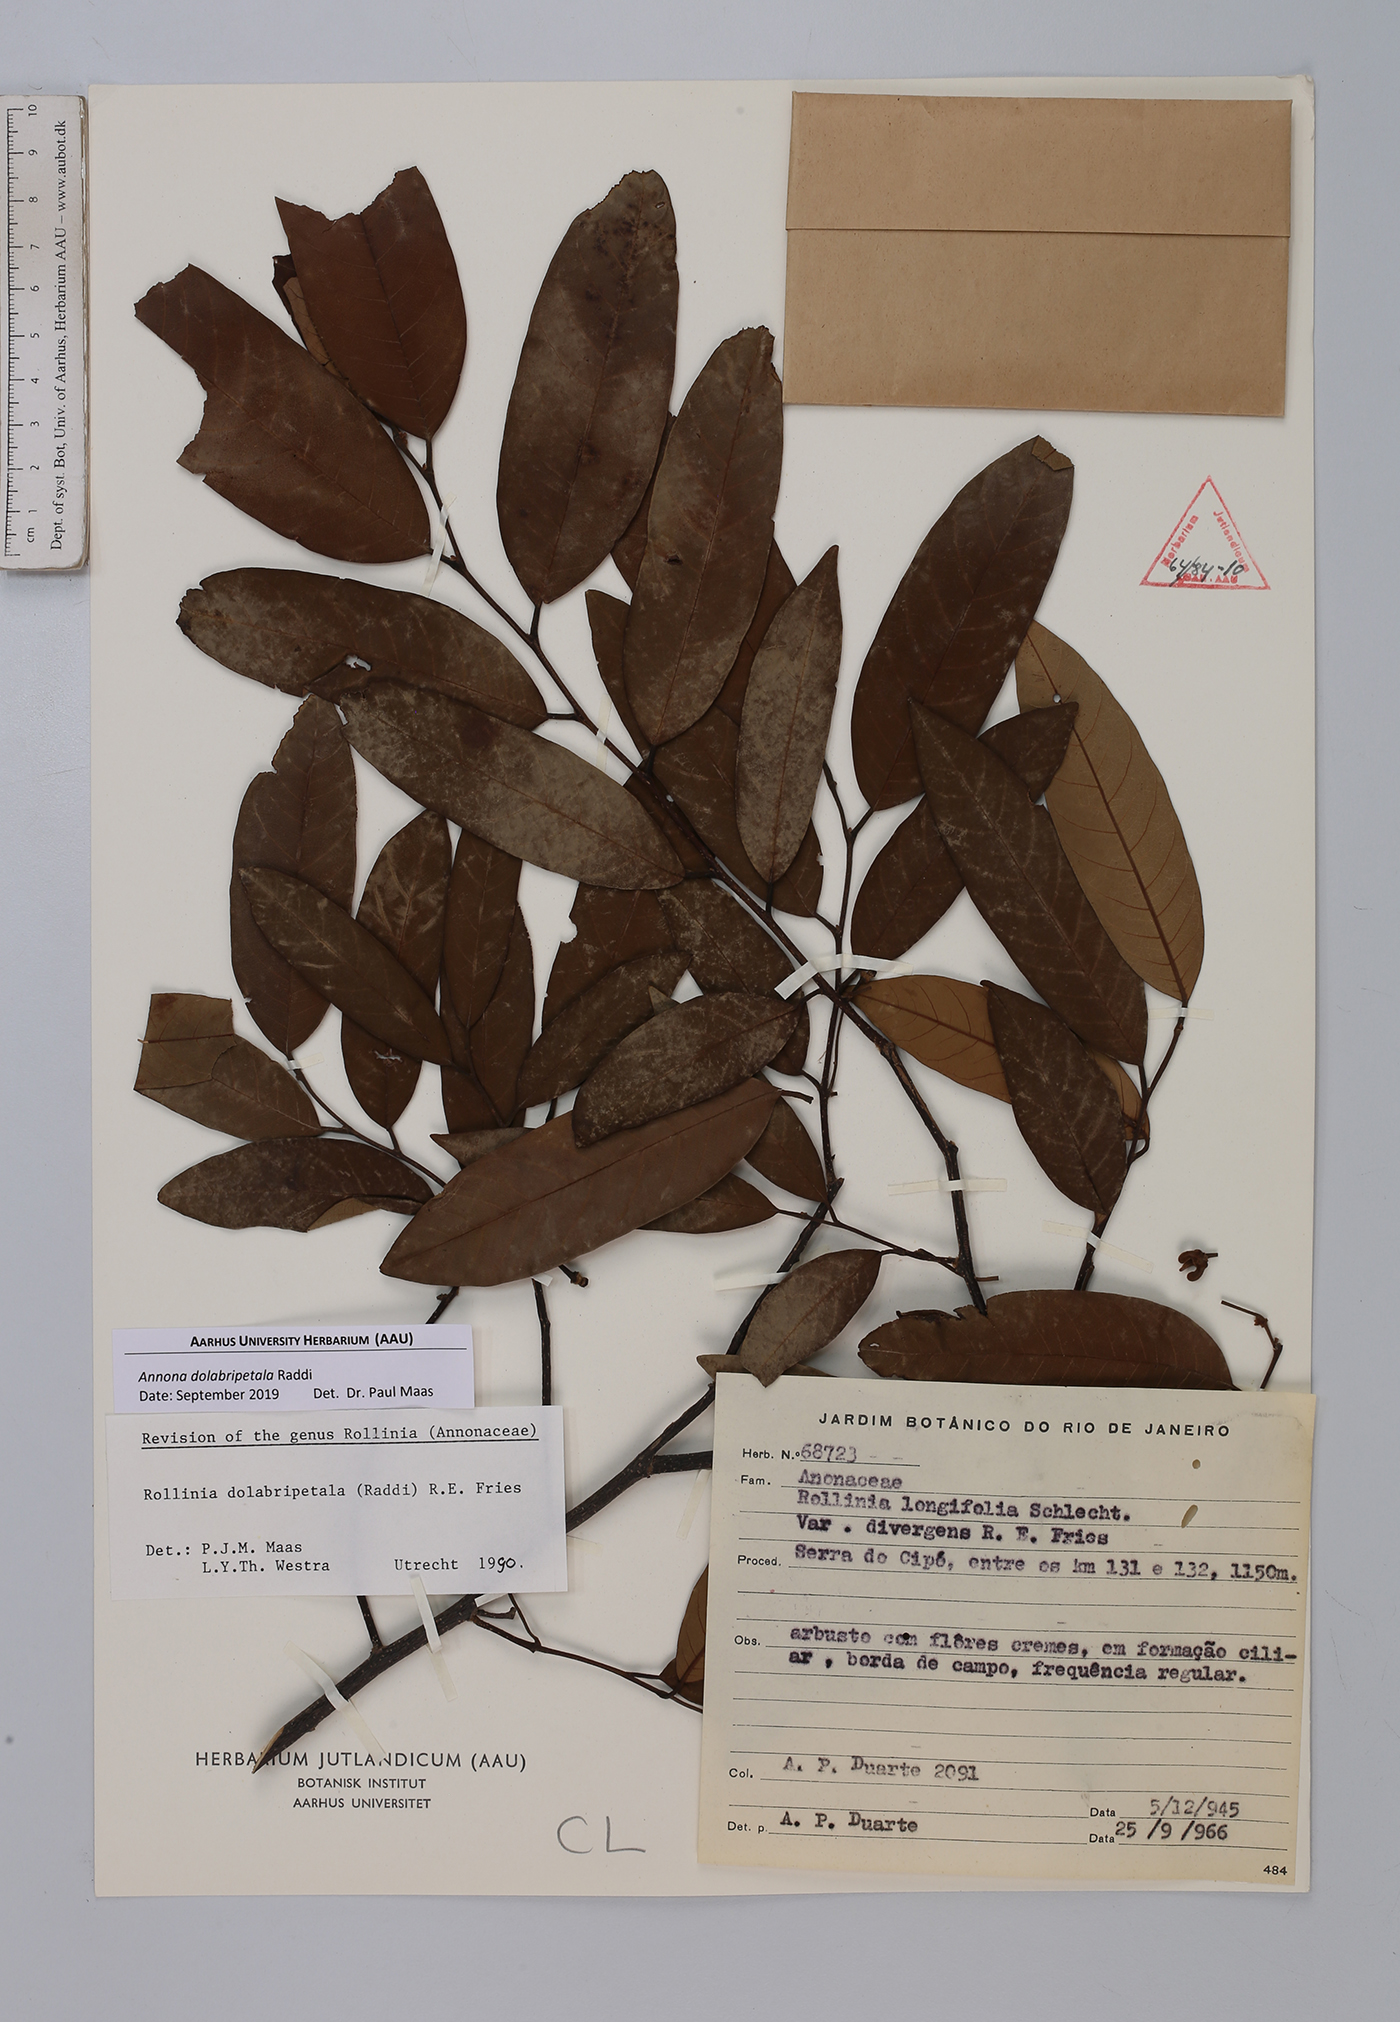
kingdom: Plantae
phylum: Tracheophyta
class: Magnoliopsida
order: Magnoliales
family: Annonaceae
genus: Annona
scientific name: Annona dolabripetala
